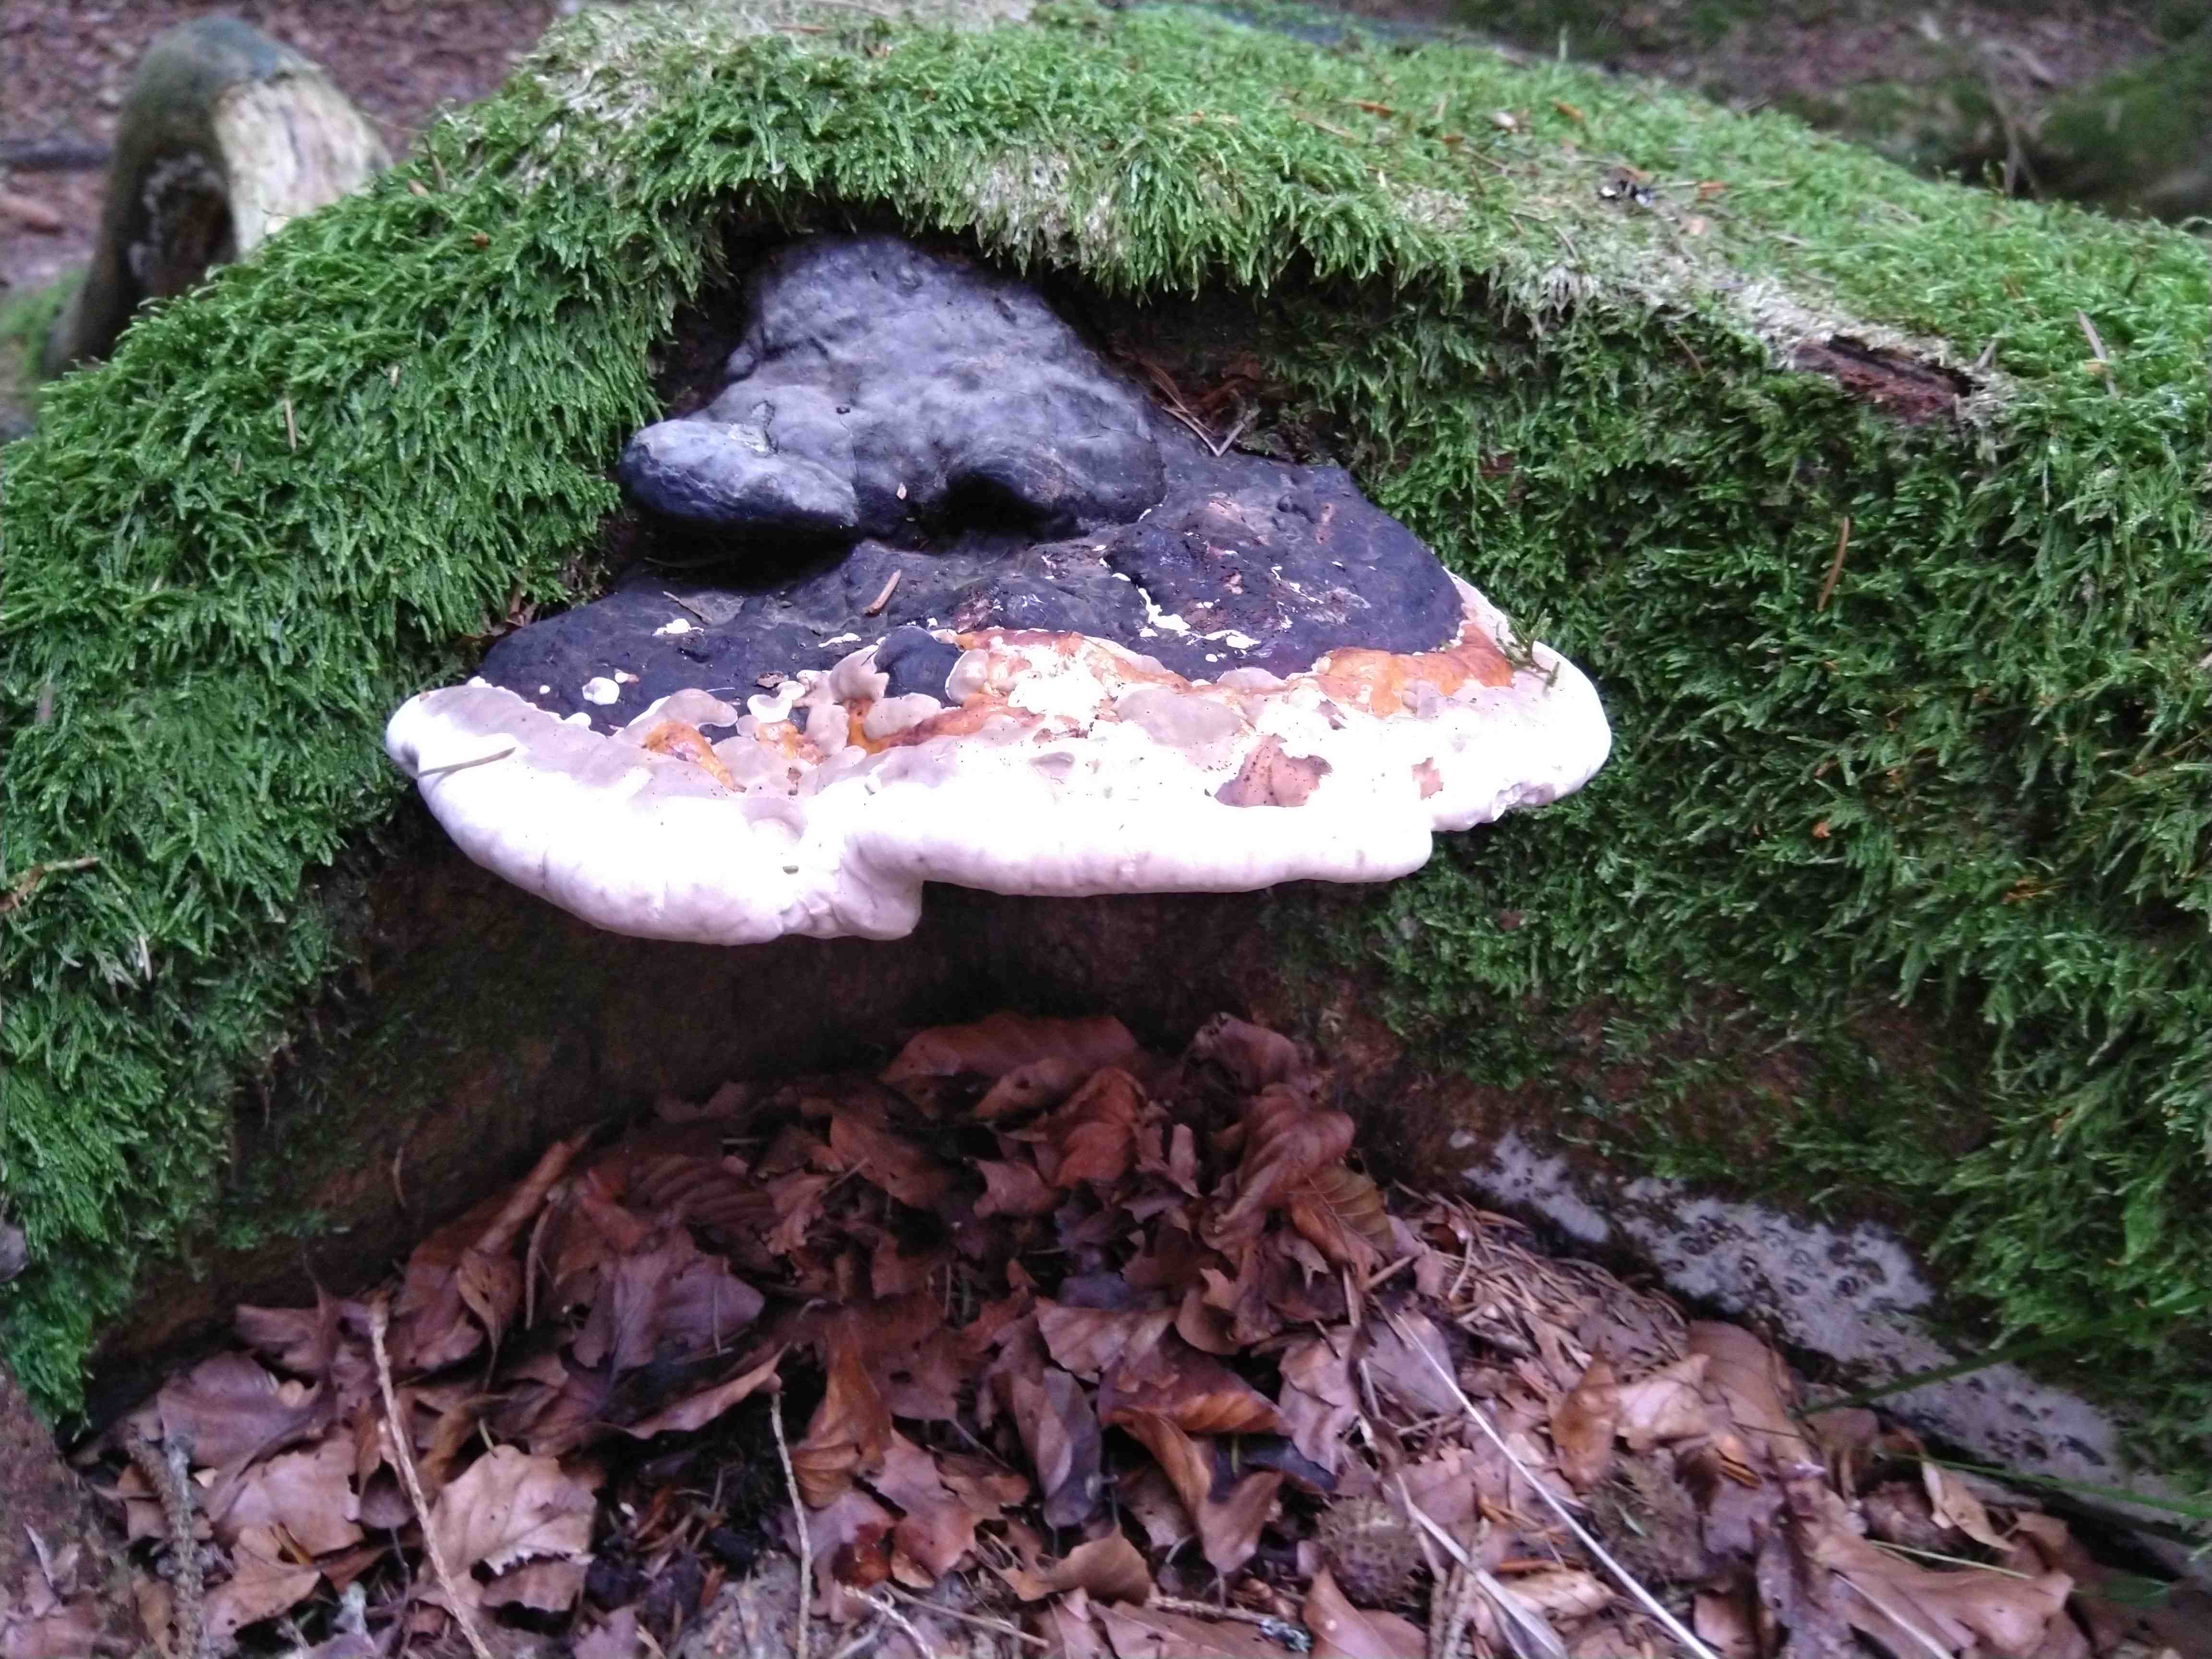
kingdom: Fungi
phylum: Basidiomycota
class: Agaricomycetes
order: Polyporales
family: Fomitopsidaceae
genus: Fomitopsis
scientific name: Fomitopsis pinicola
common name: randbæltet hovporesvamp
